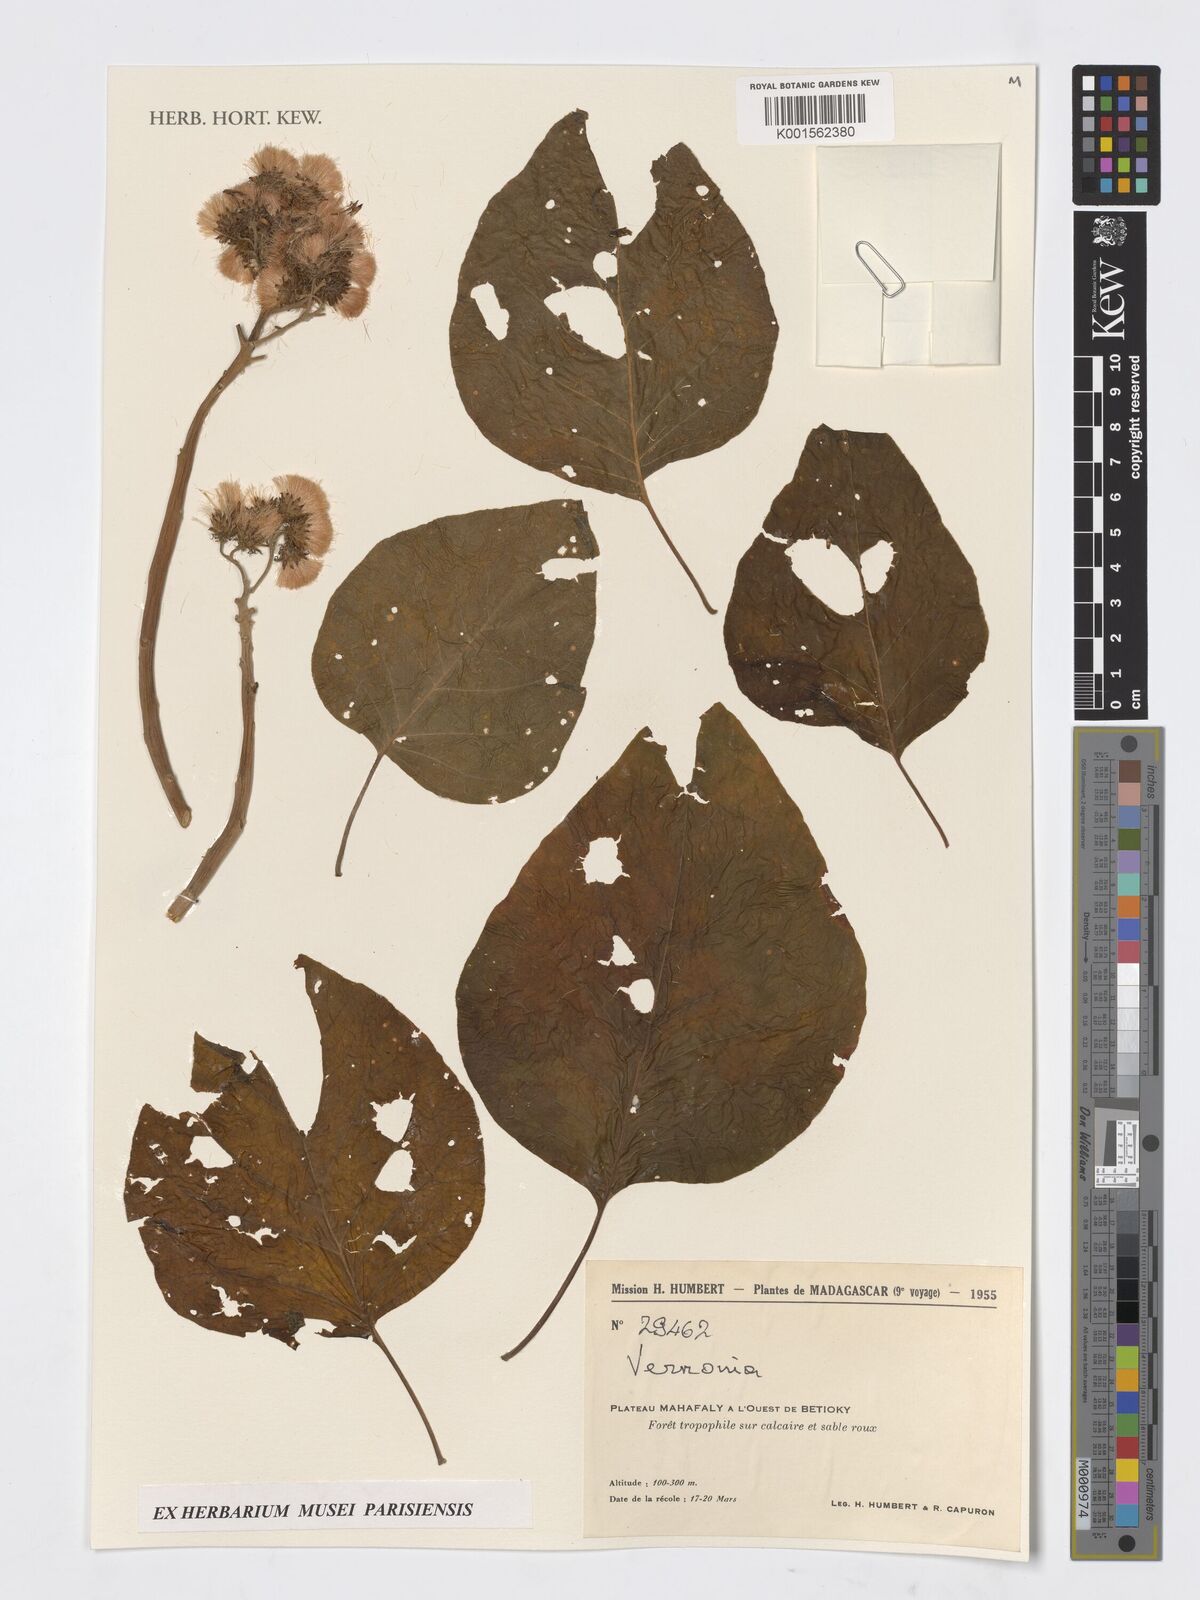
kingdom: Plantae
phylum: Tracheophyta
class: Magnoliopsida
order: Asterales
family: Asteraceae
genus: Vernonia
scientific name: Vernonia
